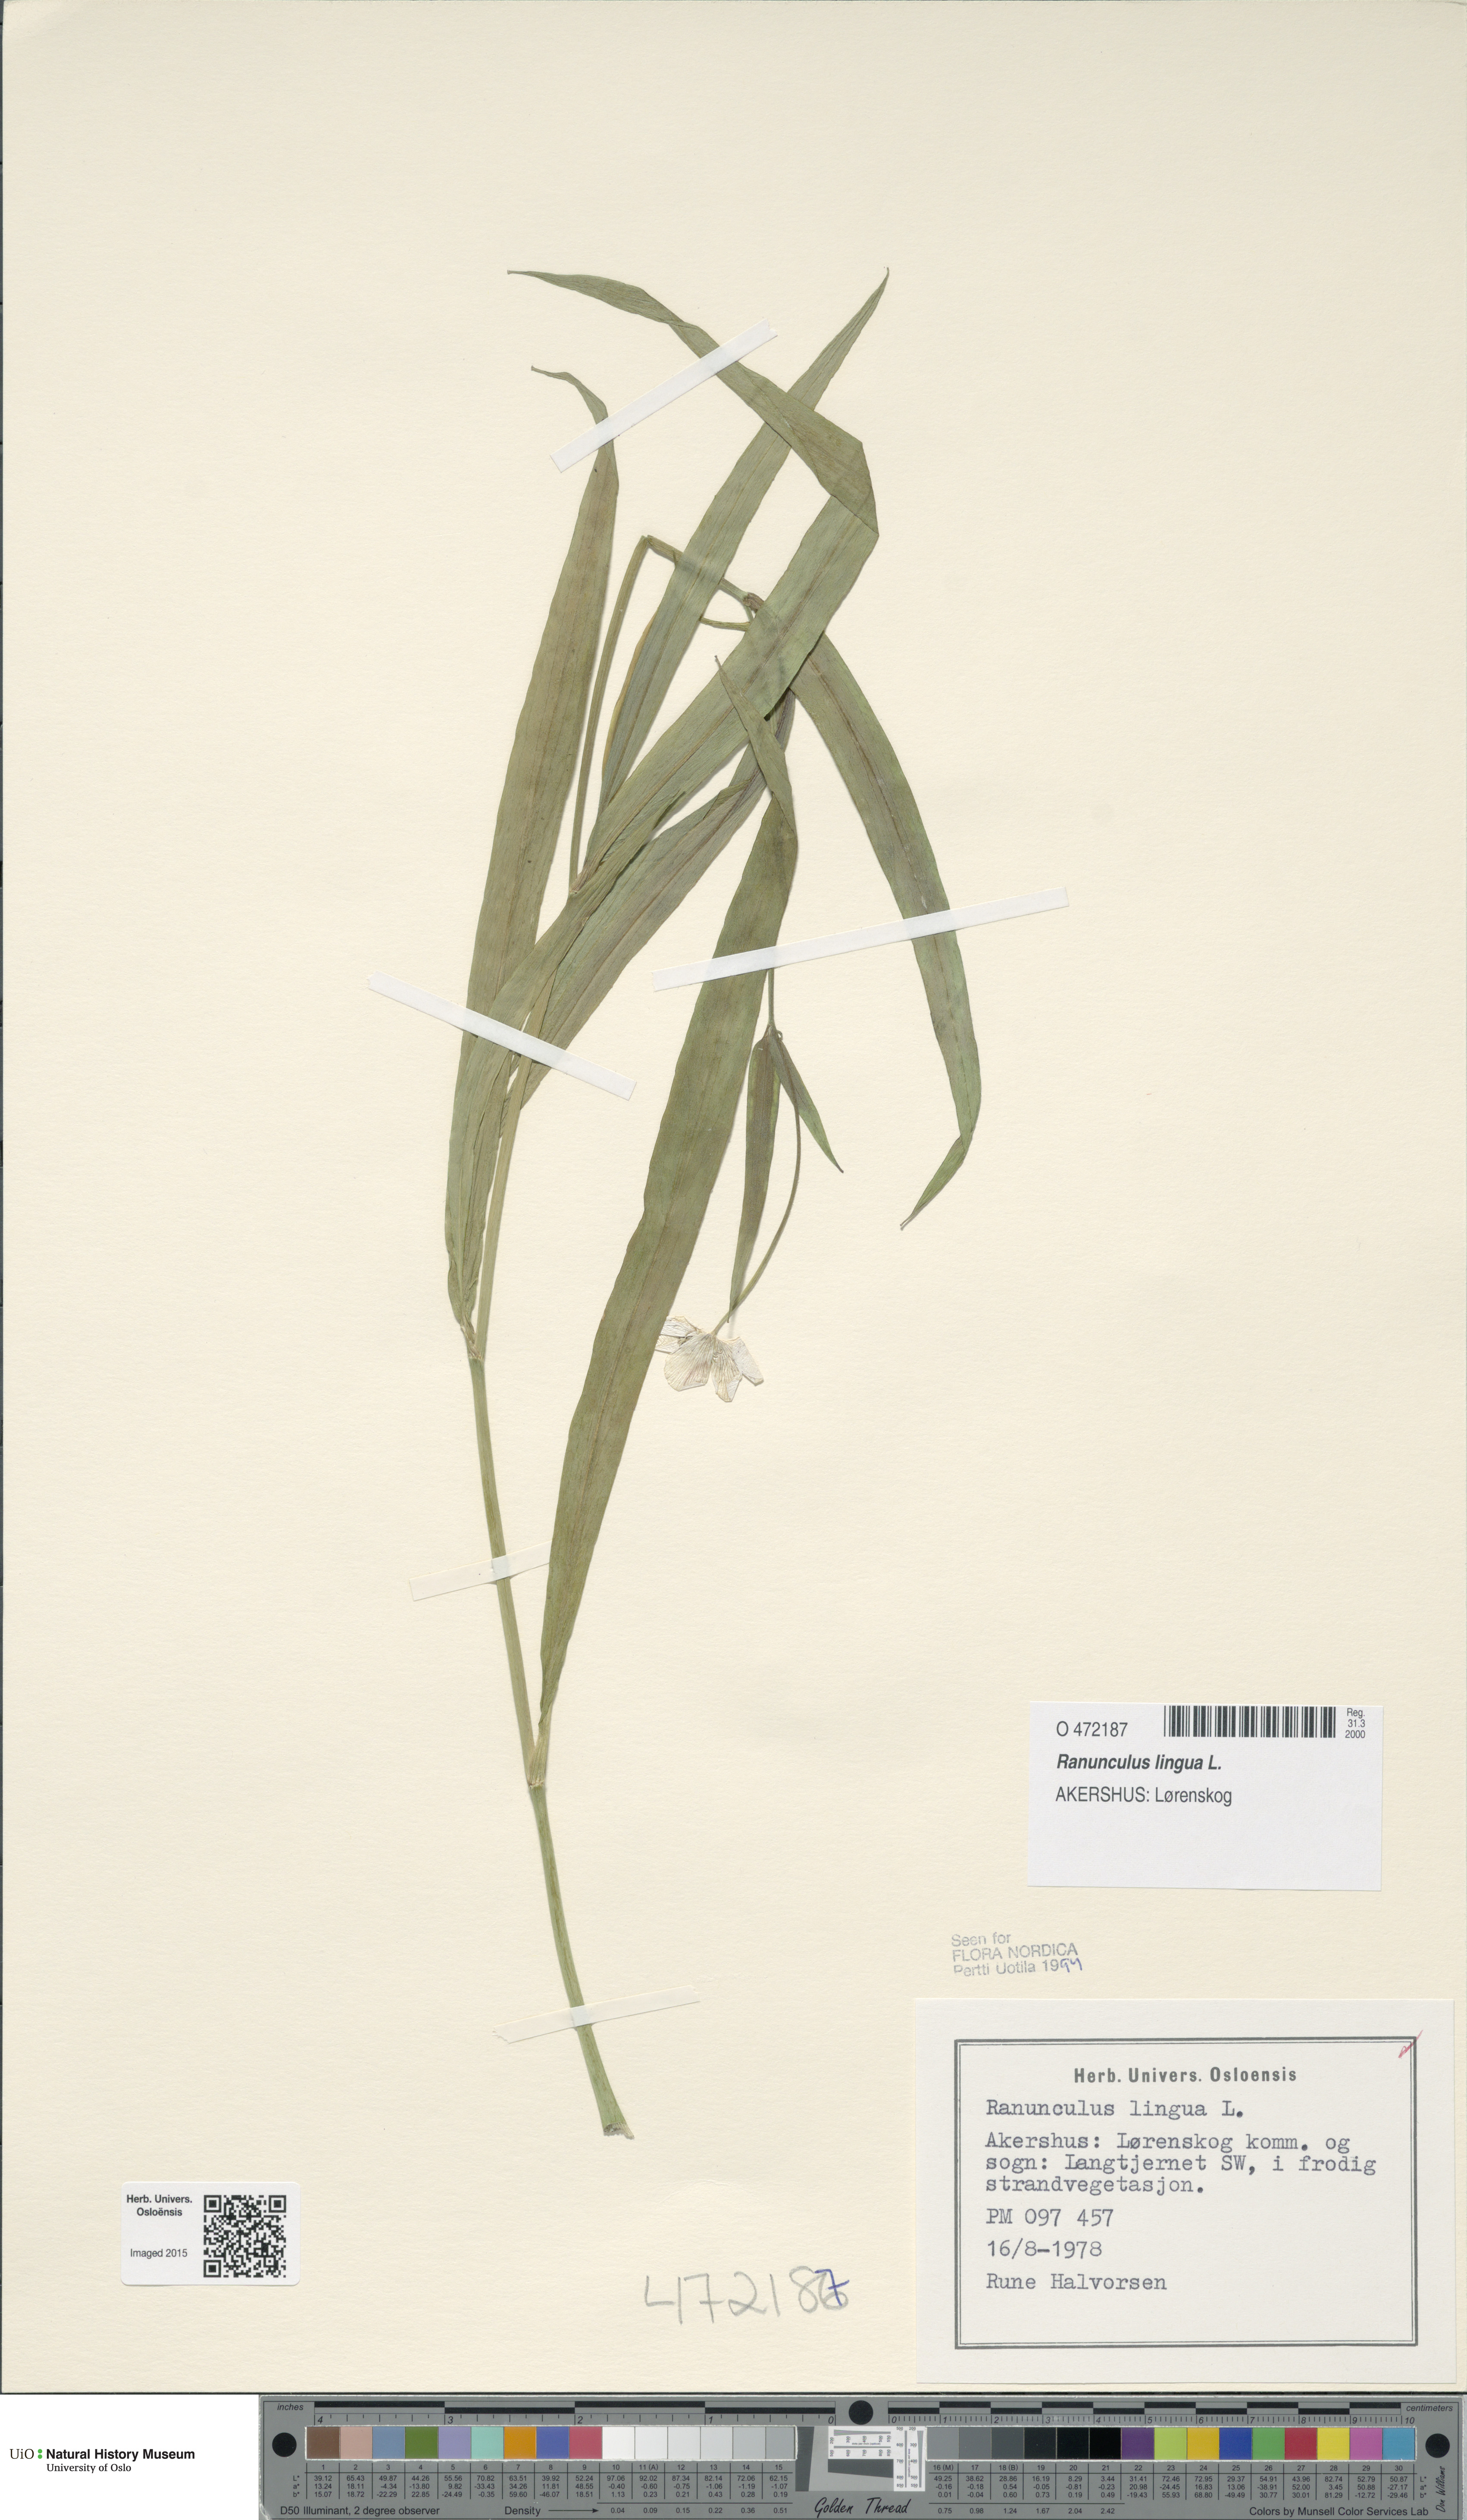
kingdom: Plantae
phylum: Tracheophyta
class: Magnoliopsida
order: Ranunculales
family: Ranunculaceae
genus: Ranunculus
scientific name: Ranunculus lingua
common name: Greater spearwort
